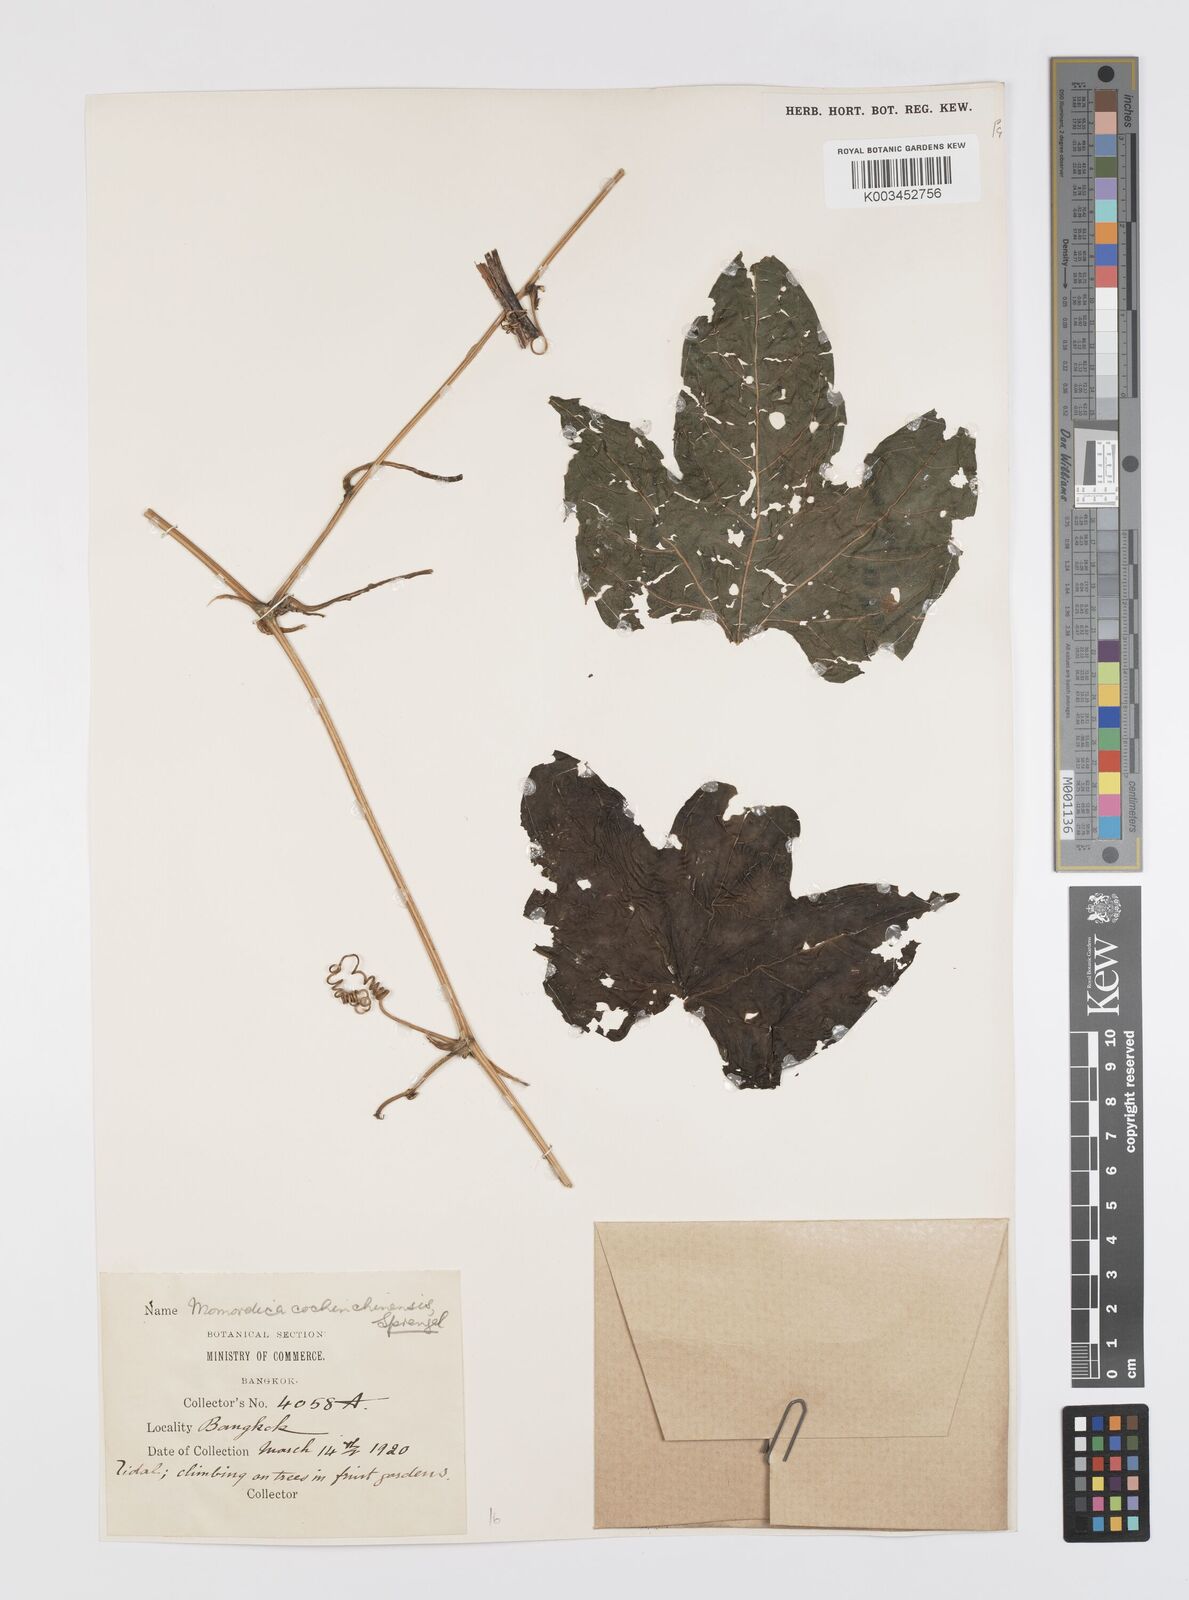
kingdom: Plantae
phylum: Tracheophyta
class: Magnoliopsida
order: Cucurbitales
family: Cucurbitaceae
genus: Momordica
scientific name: Momordica cochinchinensis
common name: Chinese bitter-cucumber
